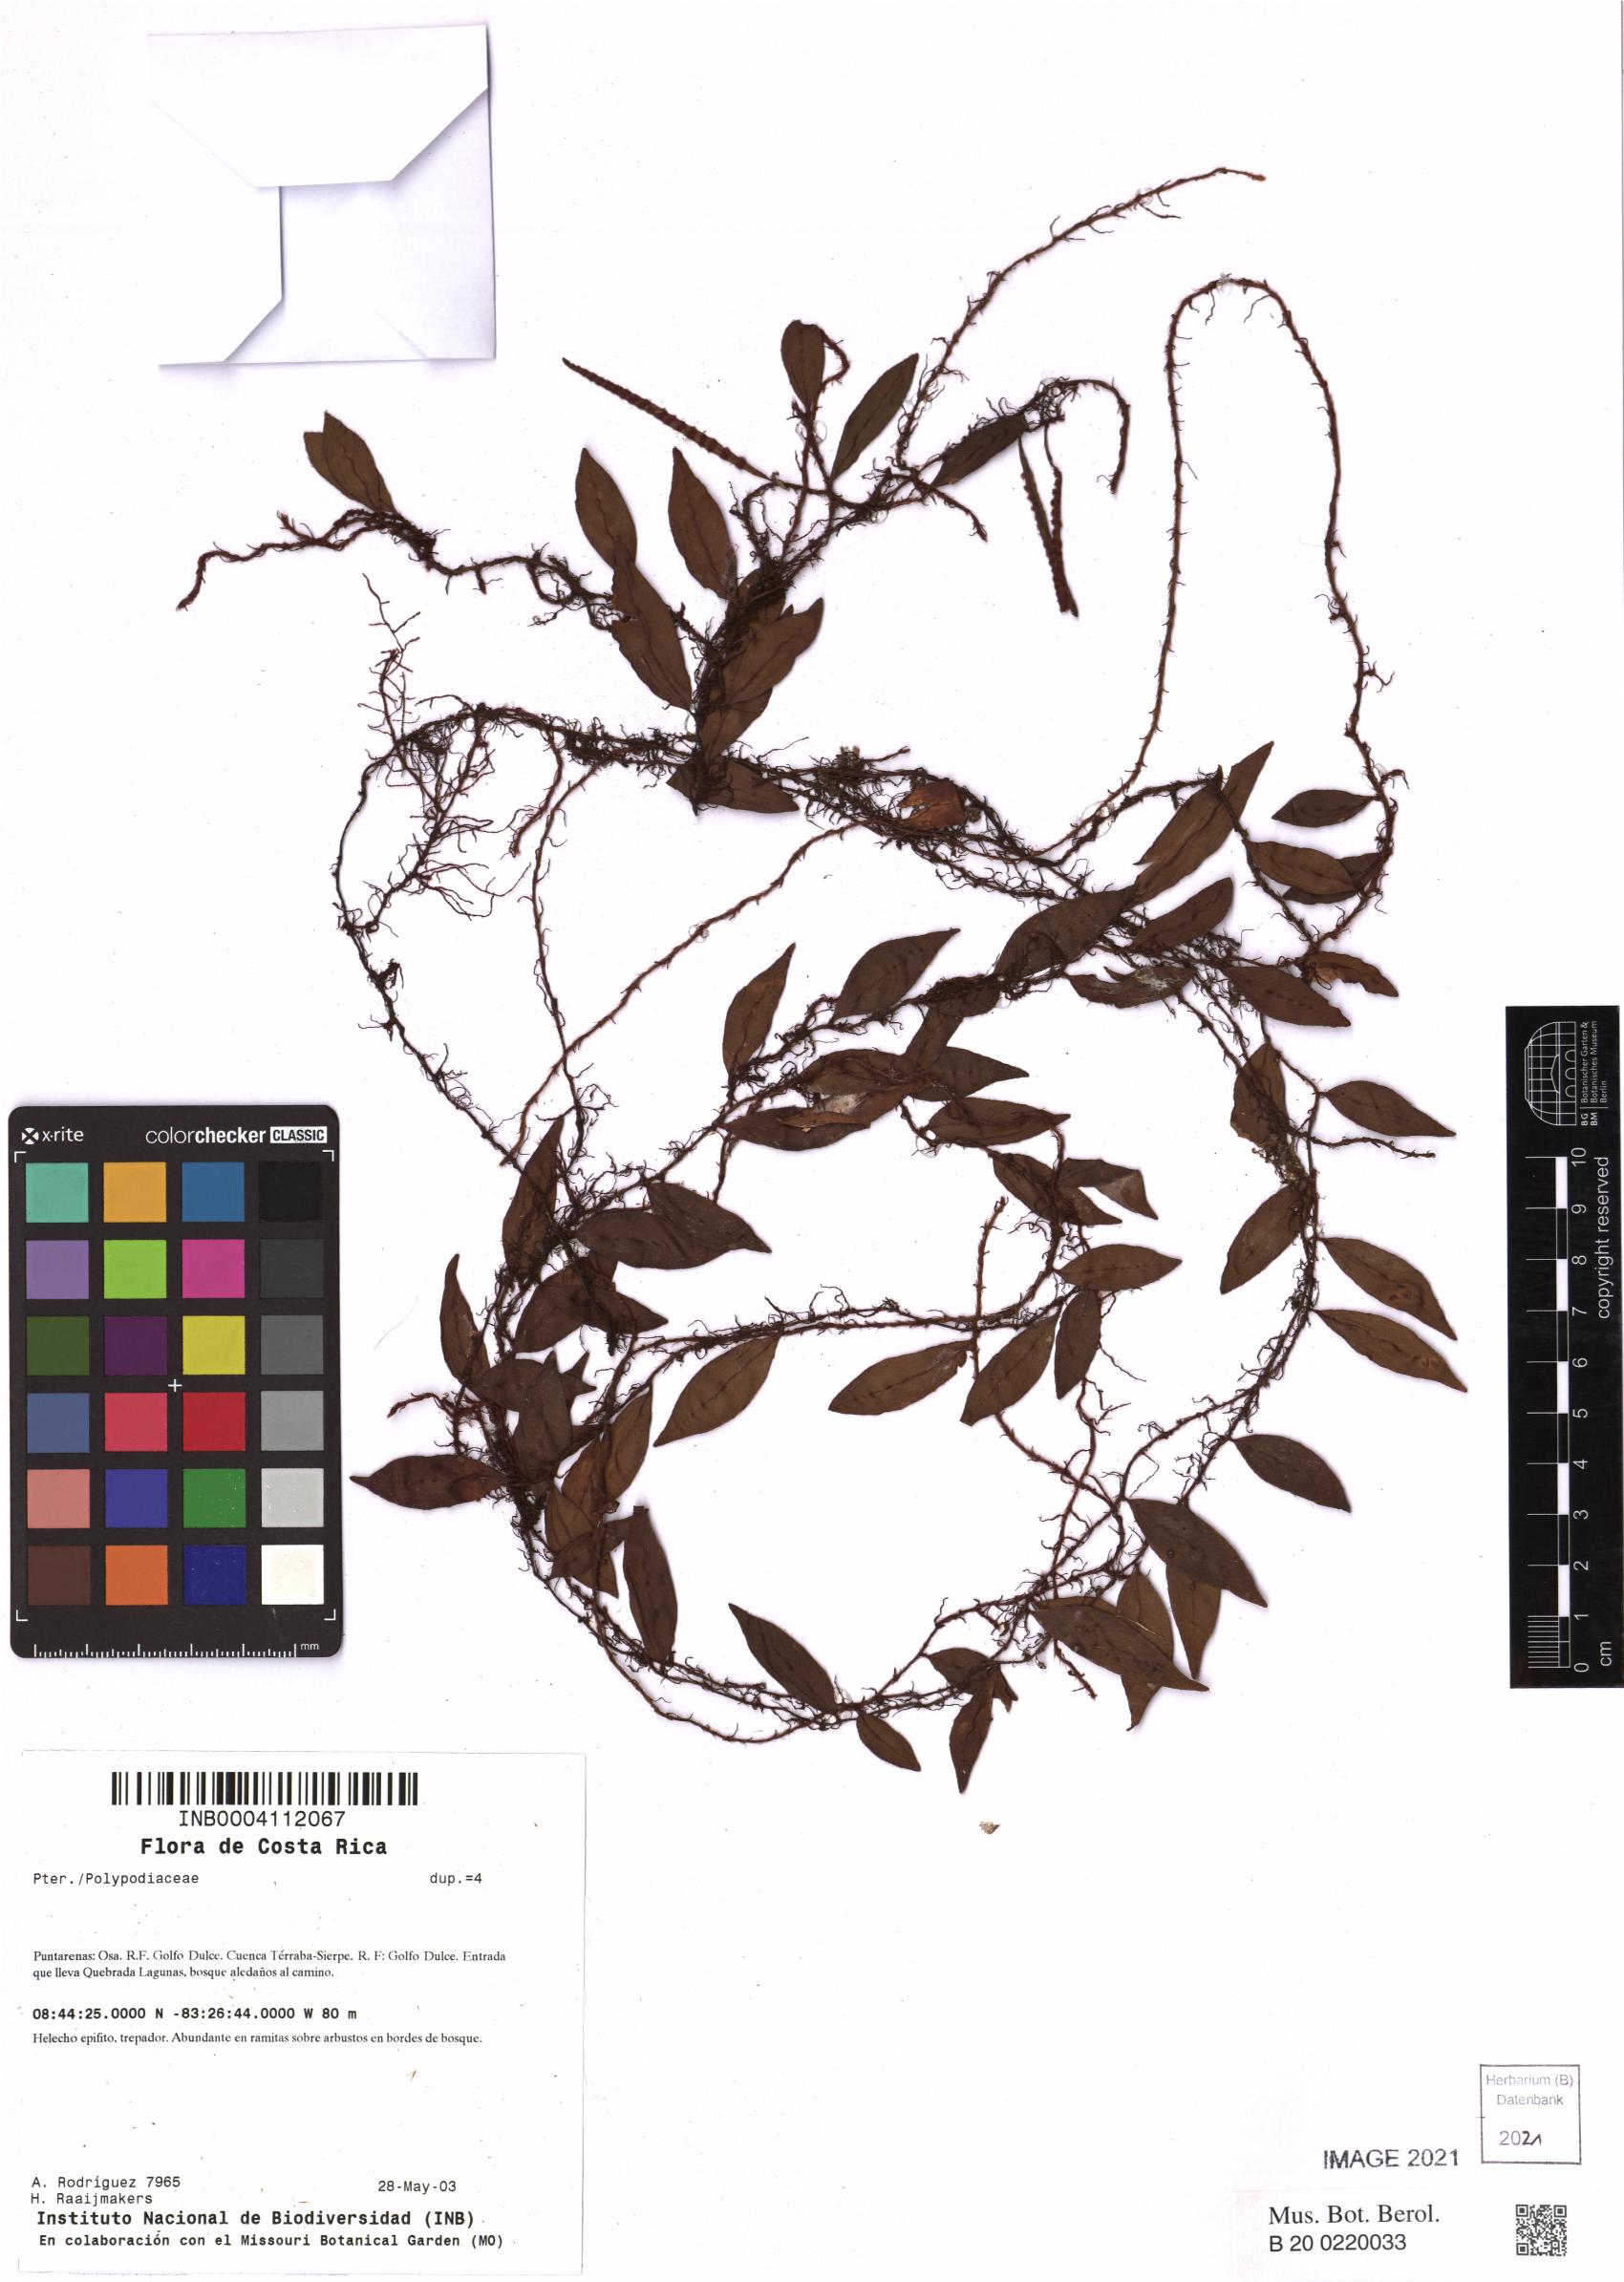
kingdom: Plantae
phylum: Tracheophyta
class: Polypodiopsida
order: Polypodiales
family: Polypodiaceae
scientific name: Polypodiaceae
